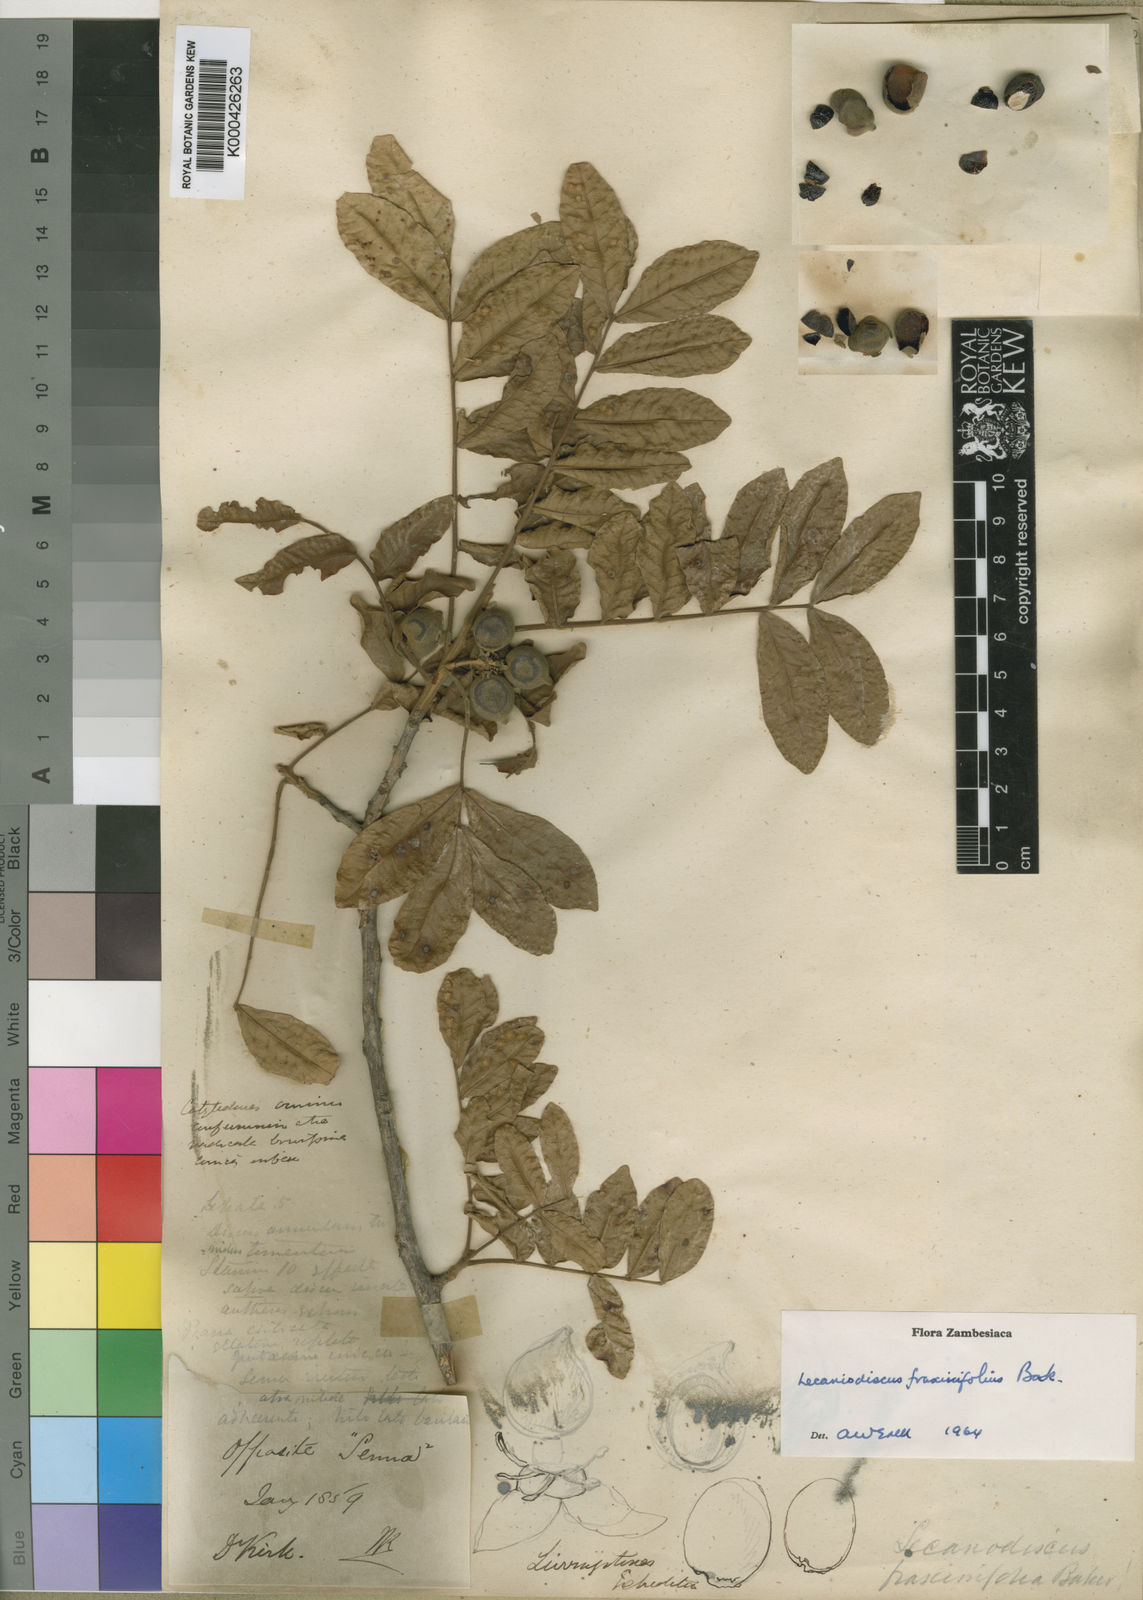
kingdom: Plantae
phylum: Tracheophyta
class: Magnoliopsida
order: Sapindales
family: Sapindaceae
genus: Lecaniodiscus
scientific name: Lecaniodiscus fraxinifolius
